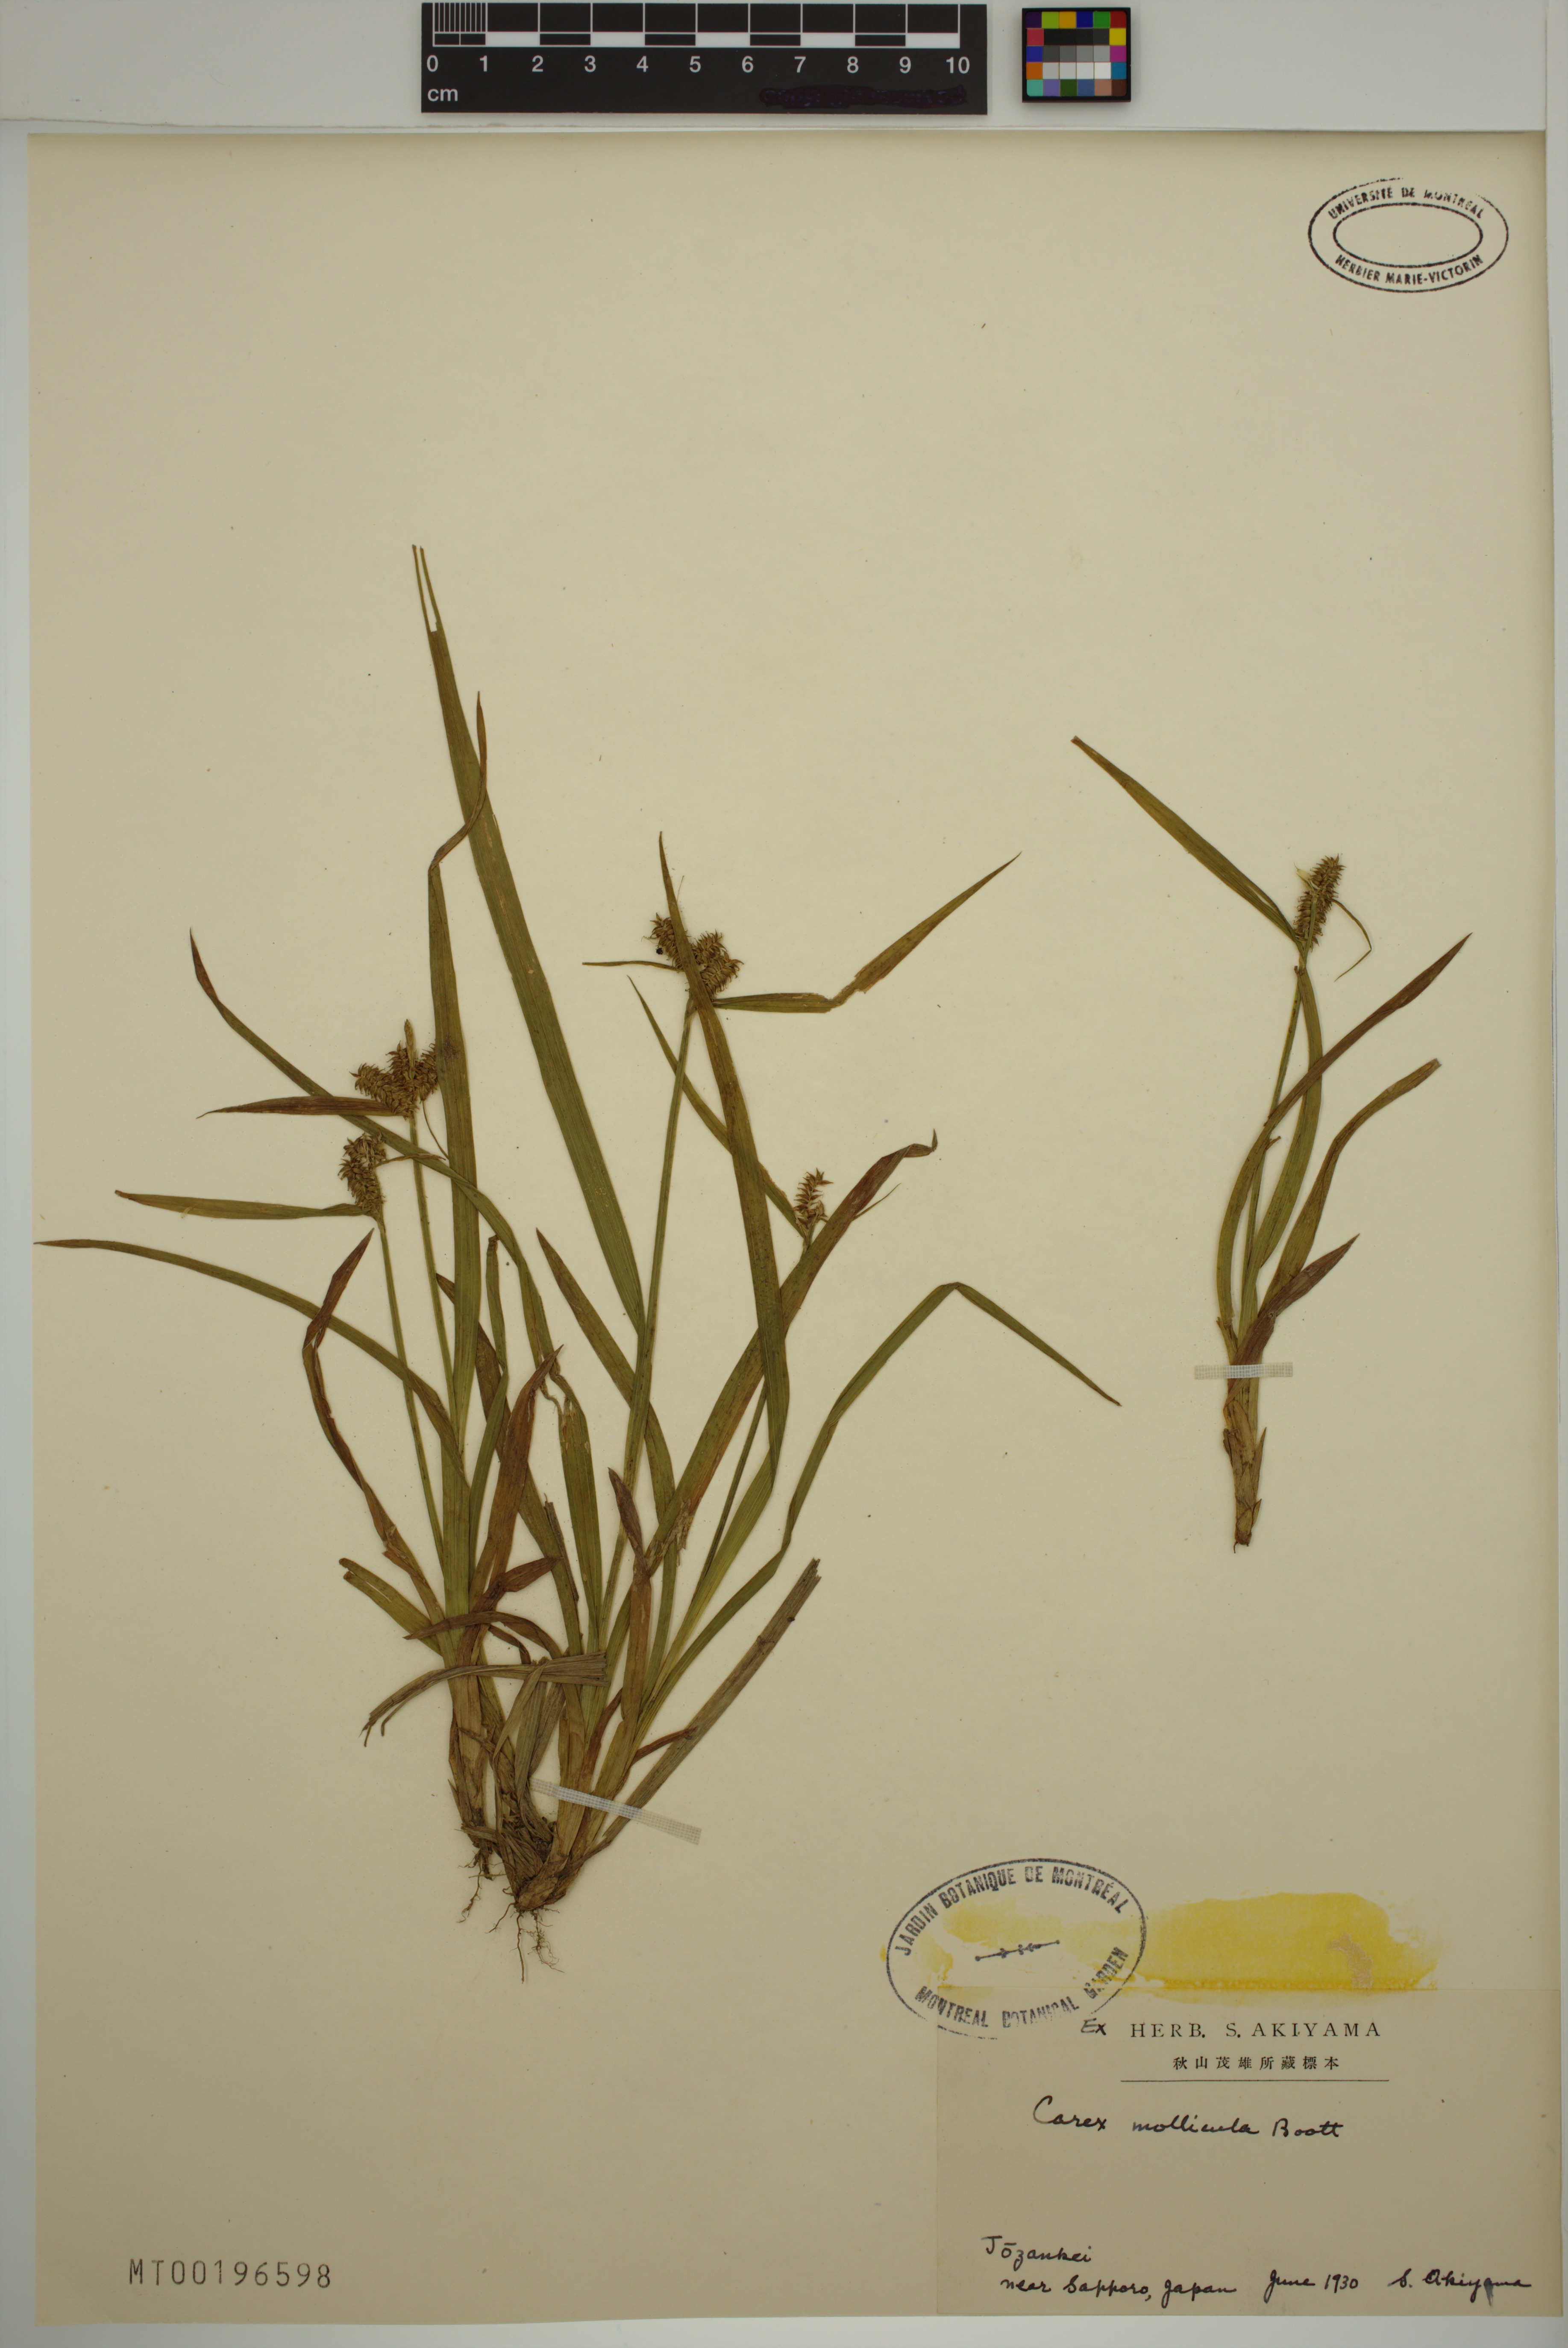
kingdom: Plantae
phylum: Tracheophyta
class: Liliopsida
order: Poales
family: Cyperaceae
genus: Carex
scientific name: Carex mollicula
